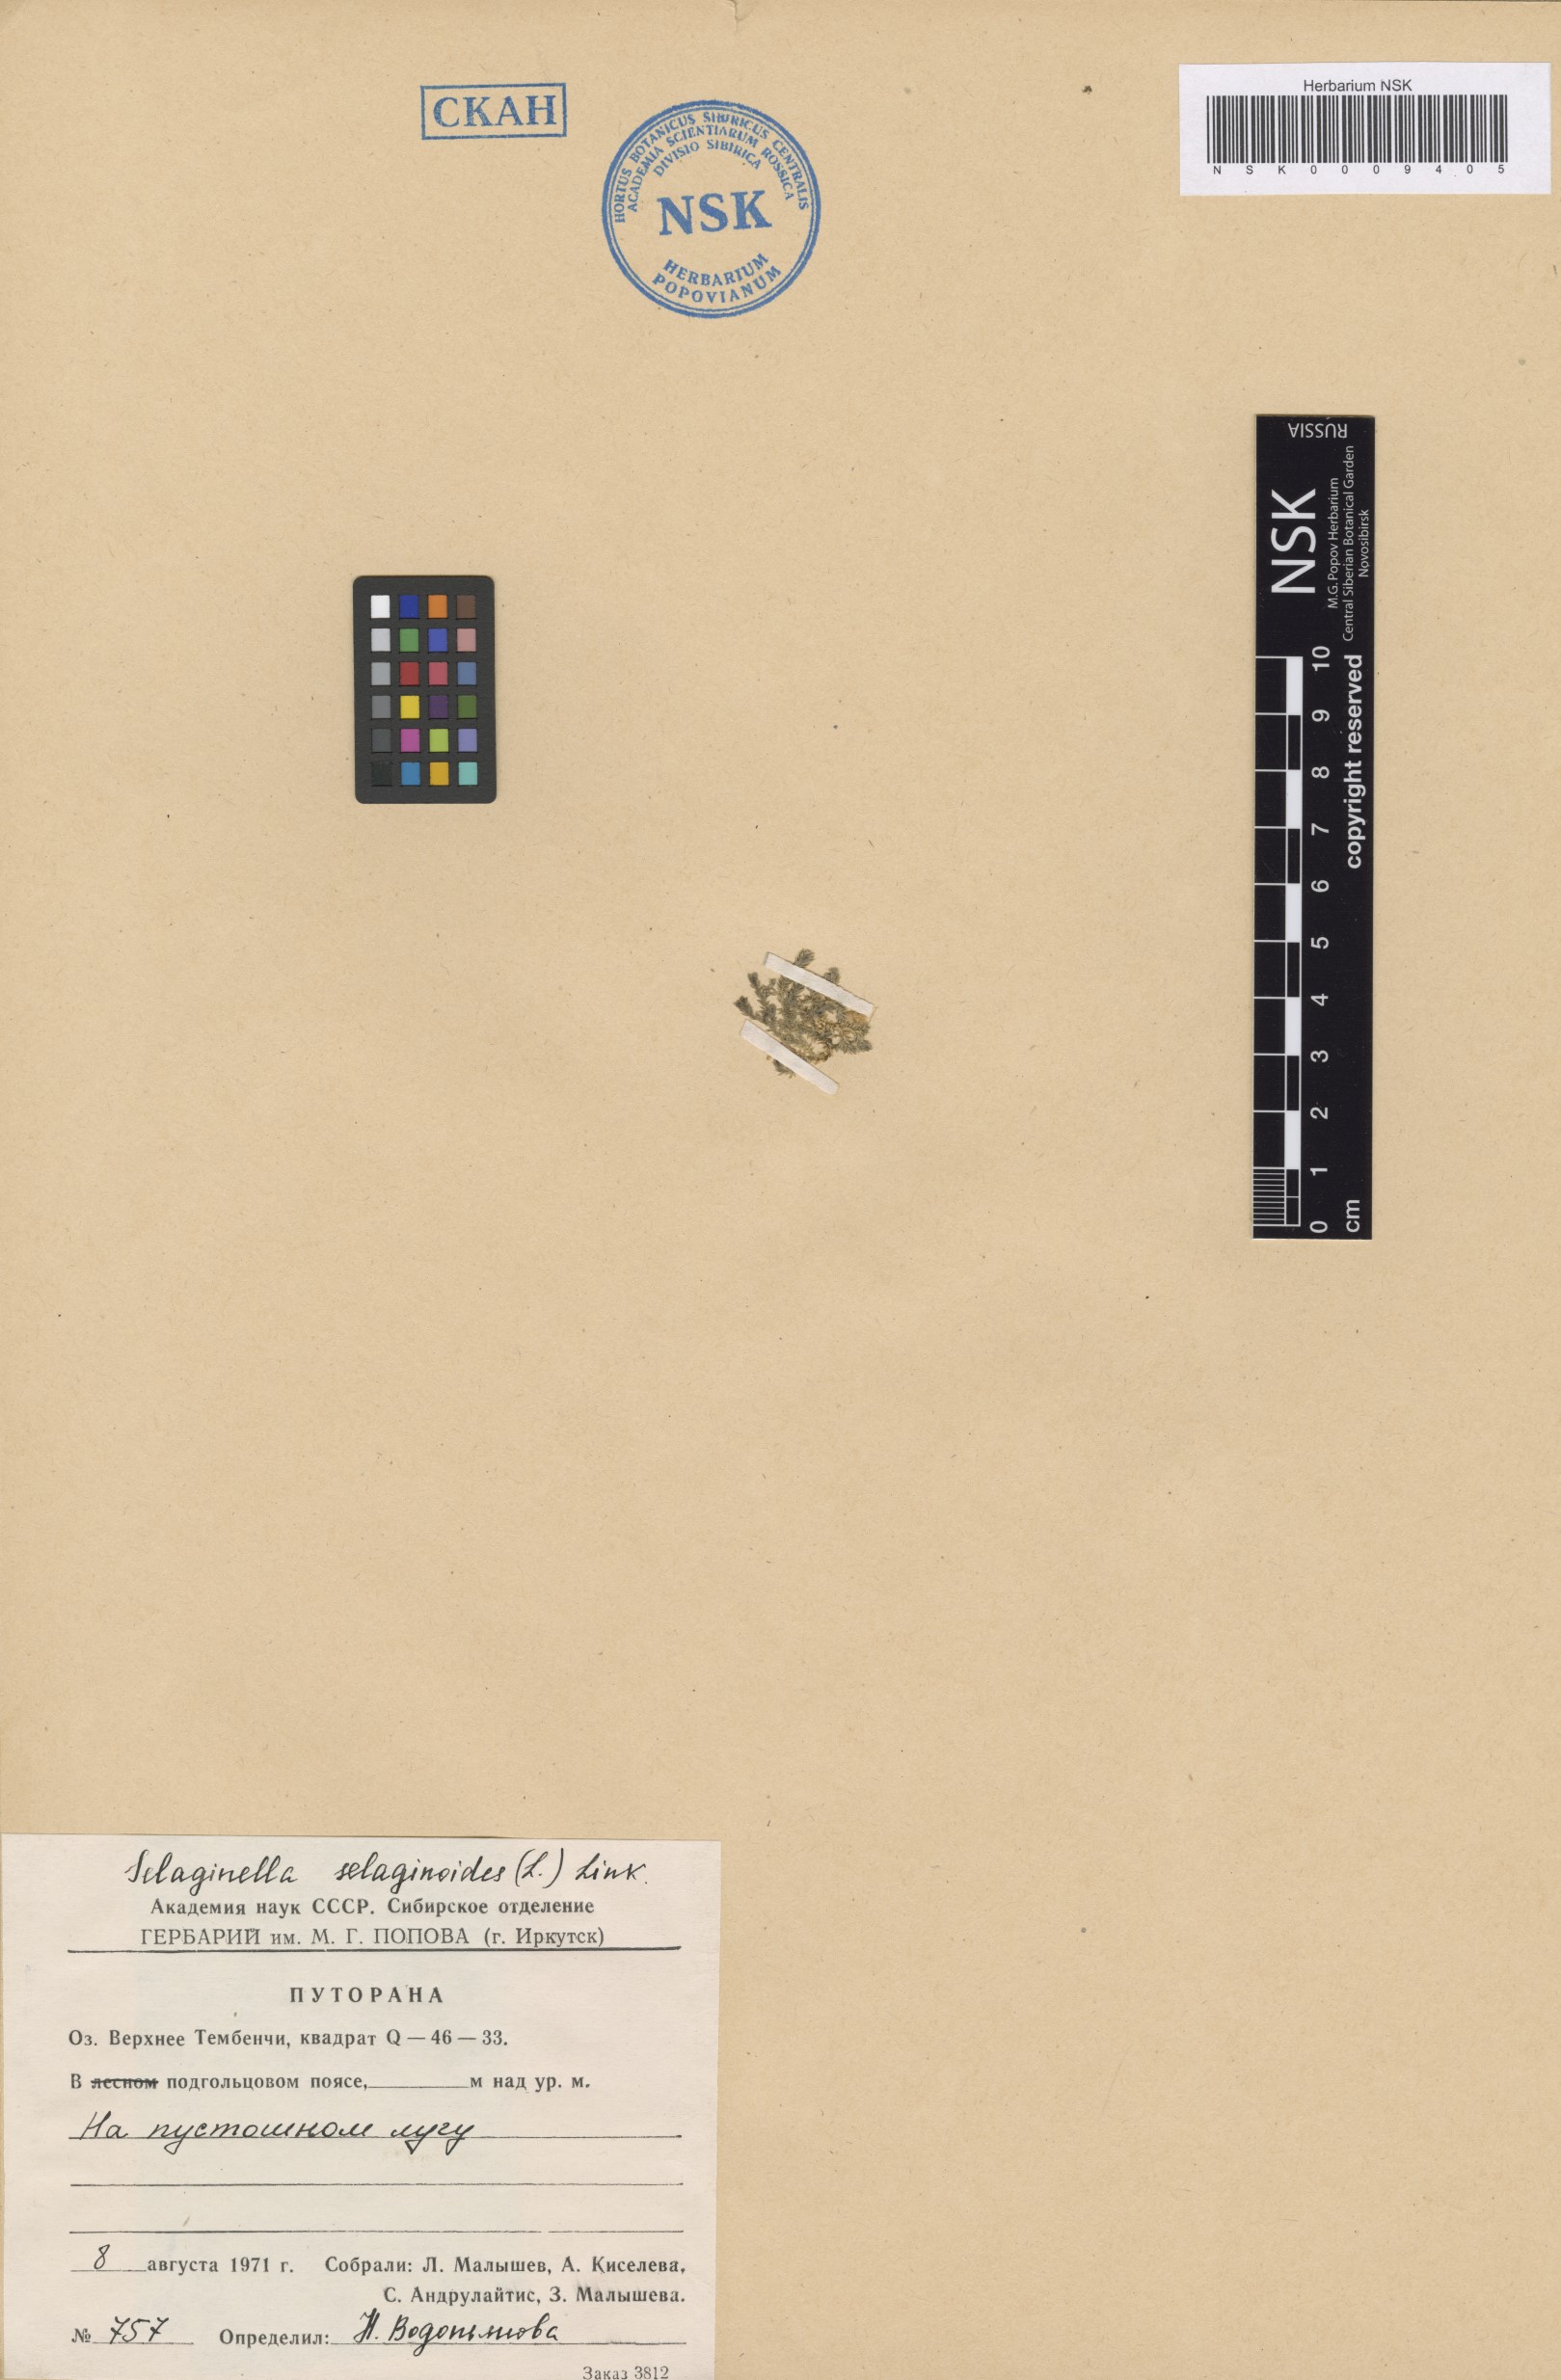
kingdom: Plantae
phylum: Tracheophyta
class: Lycopodiopsida
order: Selaginellales
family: Selaginellaceae
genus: Selaginella
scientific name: Selaginella selaginoides
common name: Prickly mountain-moss
